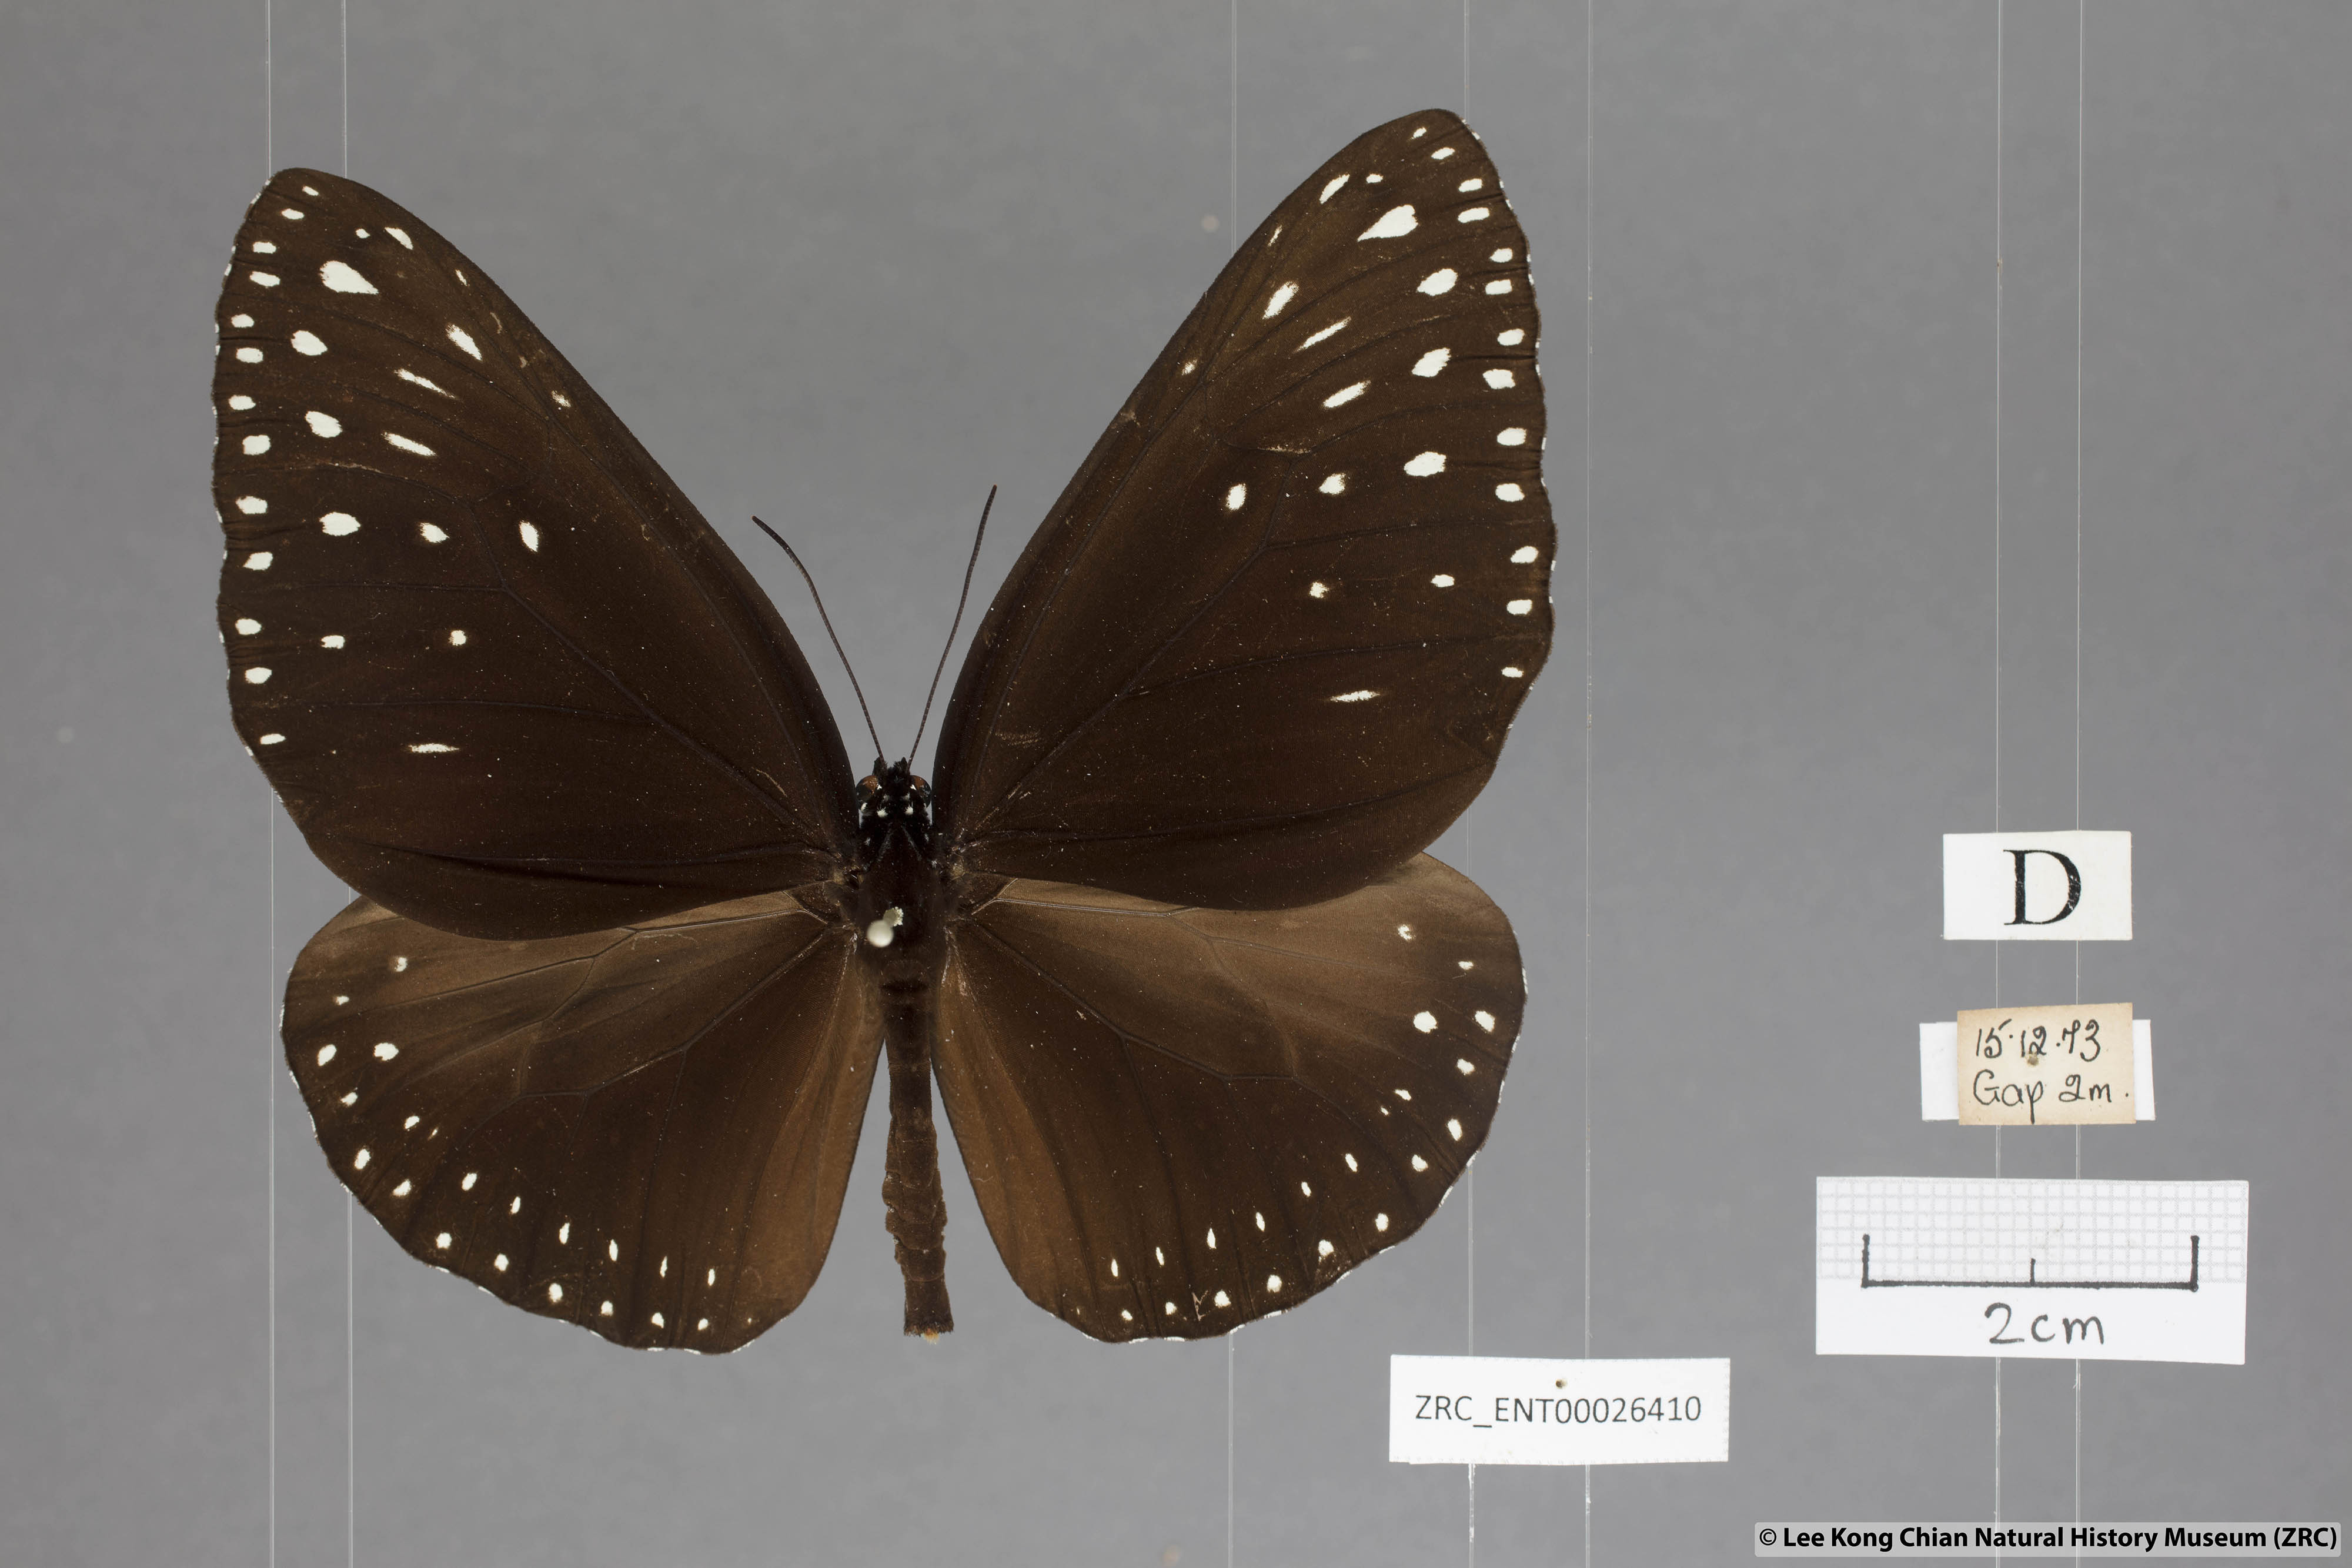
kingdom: Animalia
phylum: Arthropoda
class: Insecta
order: Lepidoptera
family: Nymphalidae
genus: Euploea
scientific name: Euploea camaralzeman
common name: Malayan crow butterfly
